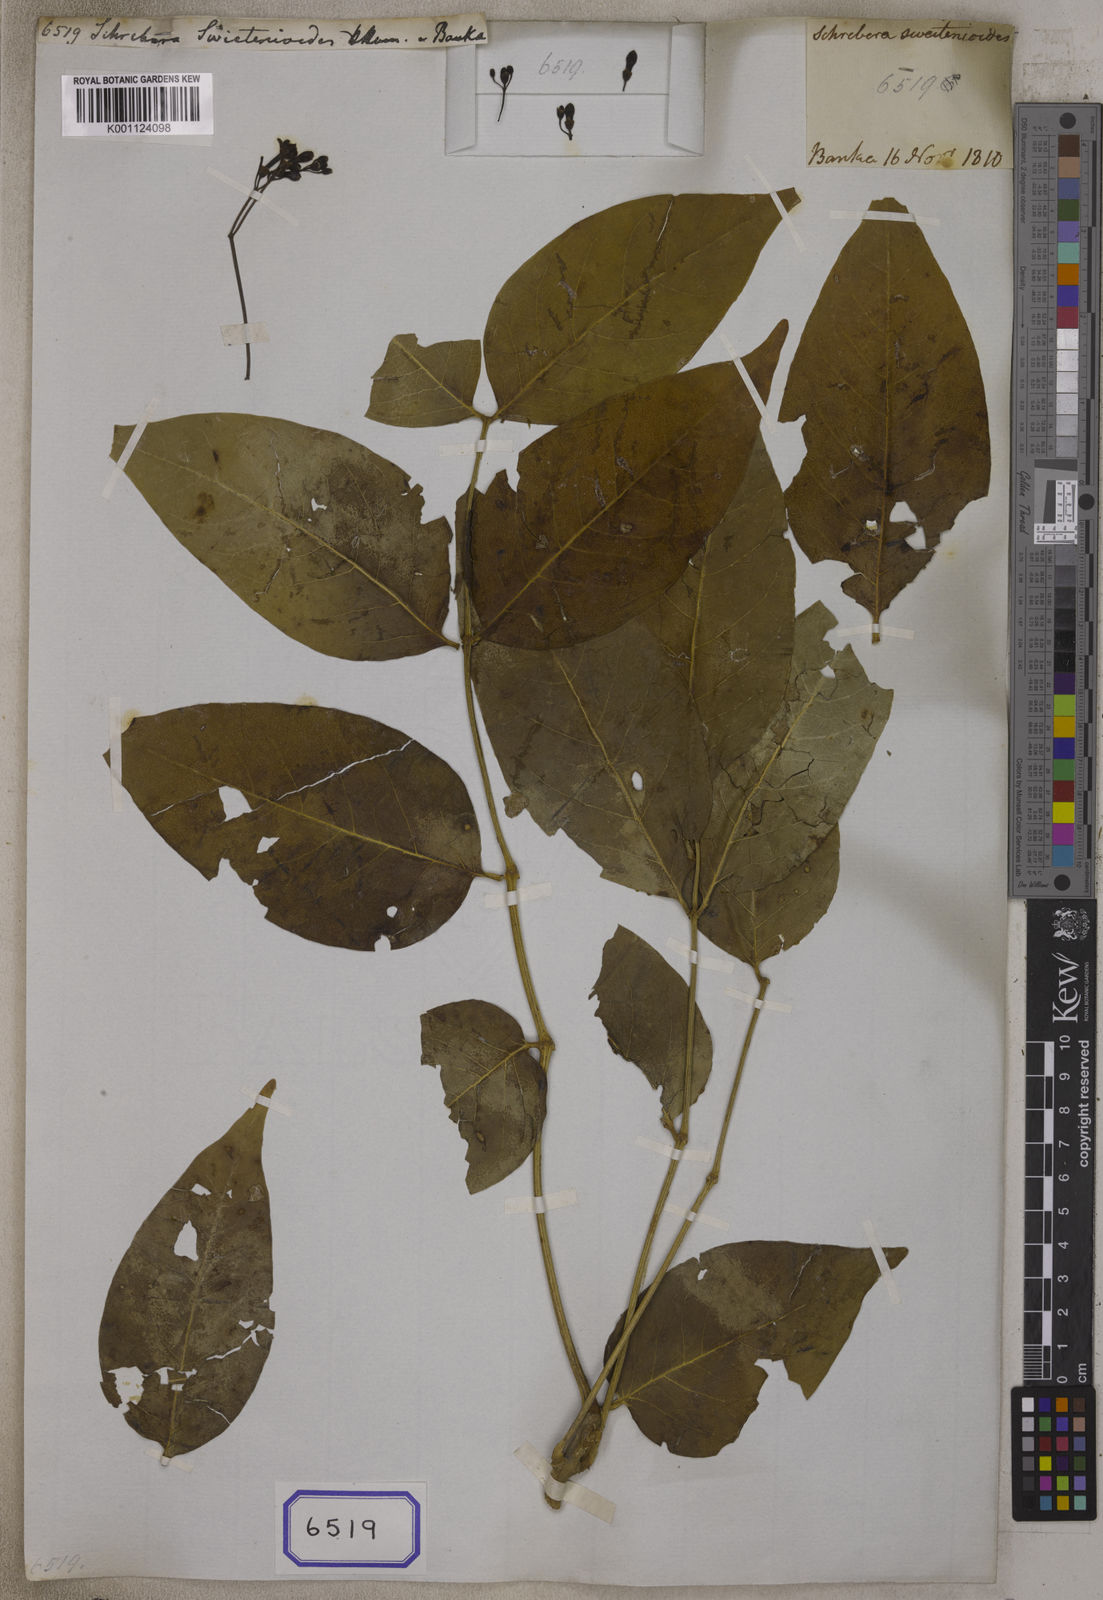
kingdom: Plantae
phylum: Tracheophyta
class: Magnoliopsida
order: Lamiales
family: Oleaceae
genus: Schrebera
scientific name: Schrebera swietenioides
